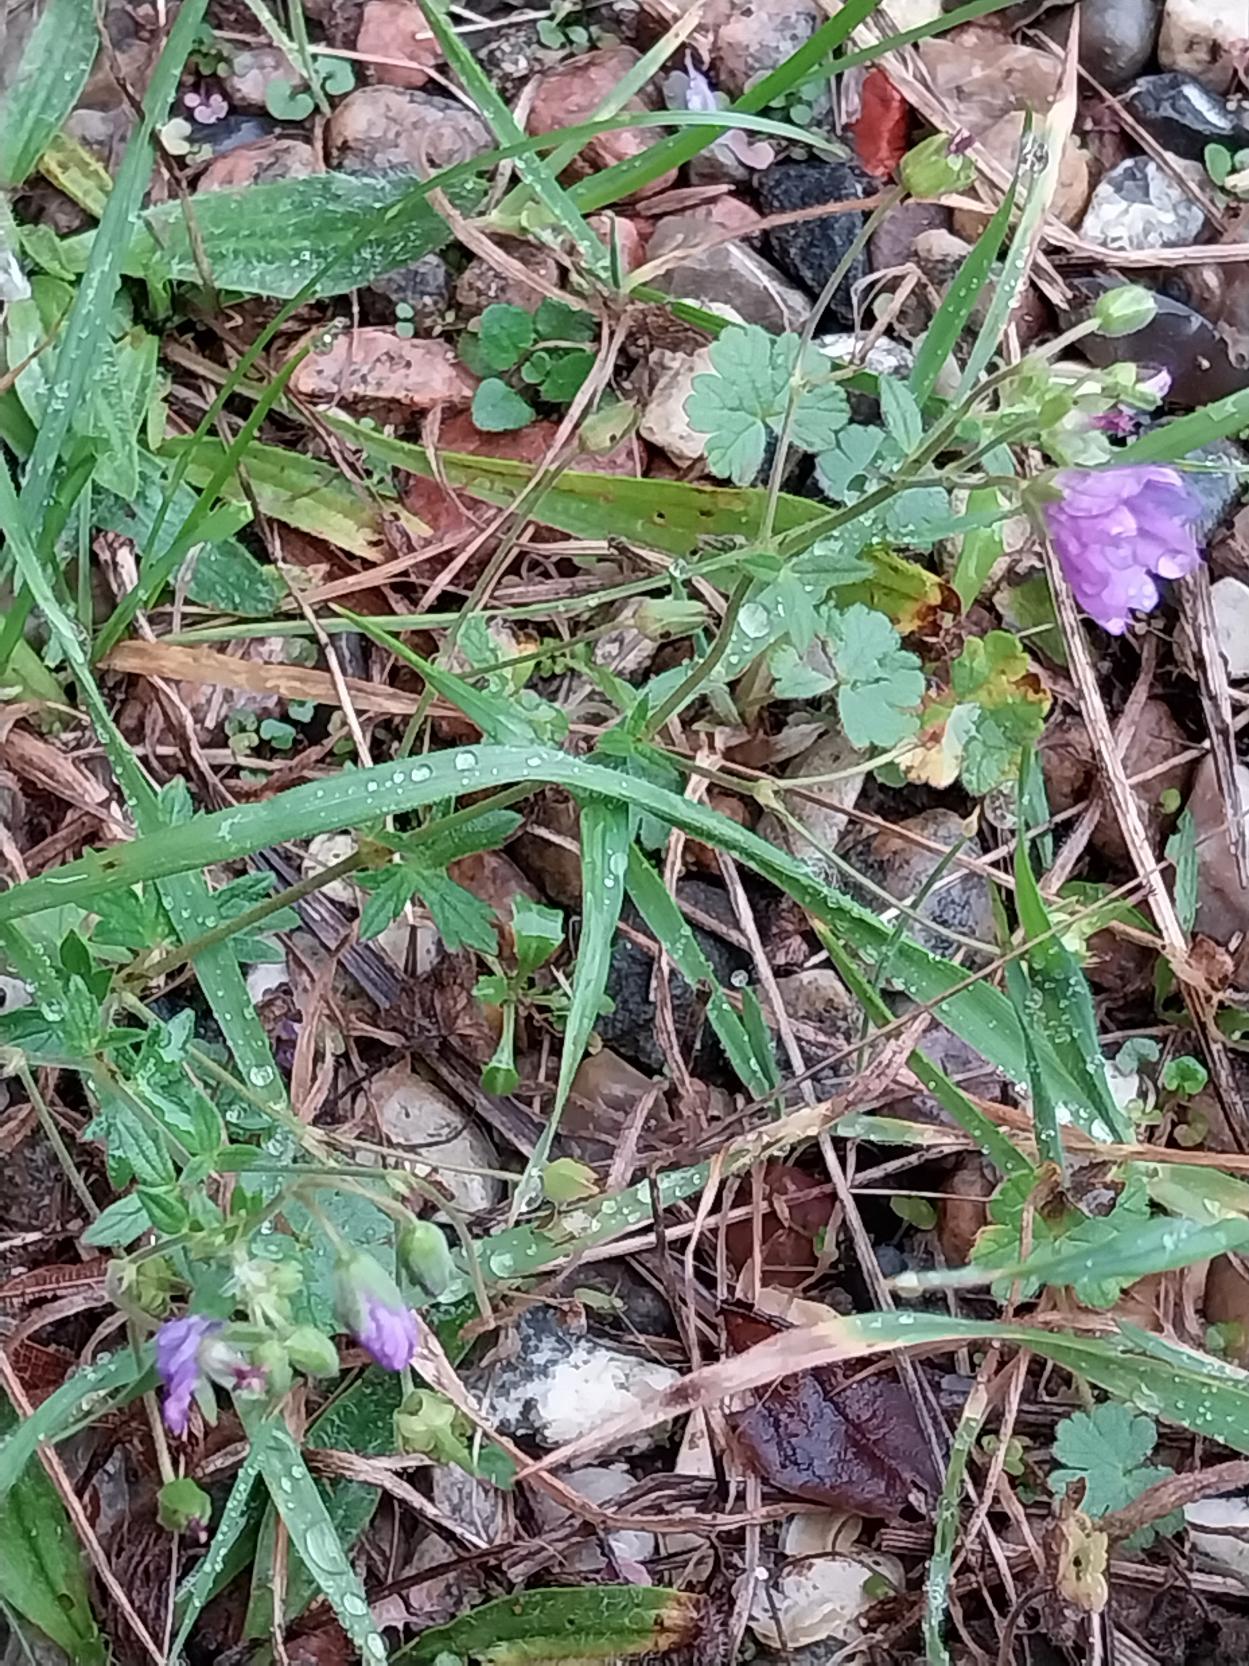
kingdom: Plantae
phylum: Tracheophyta
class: Magnoliopsida
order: Geraniales
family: Geraniaceae
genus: Geranium
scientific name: Geranium pyrenaicum
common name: Pyrenæisk storkenæb
